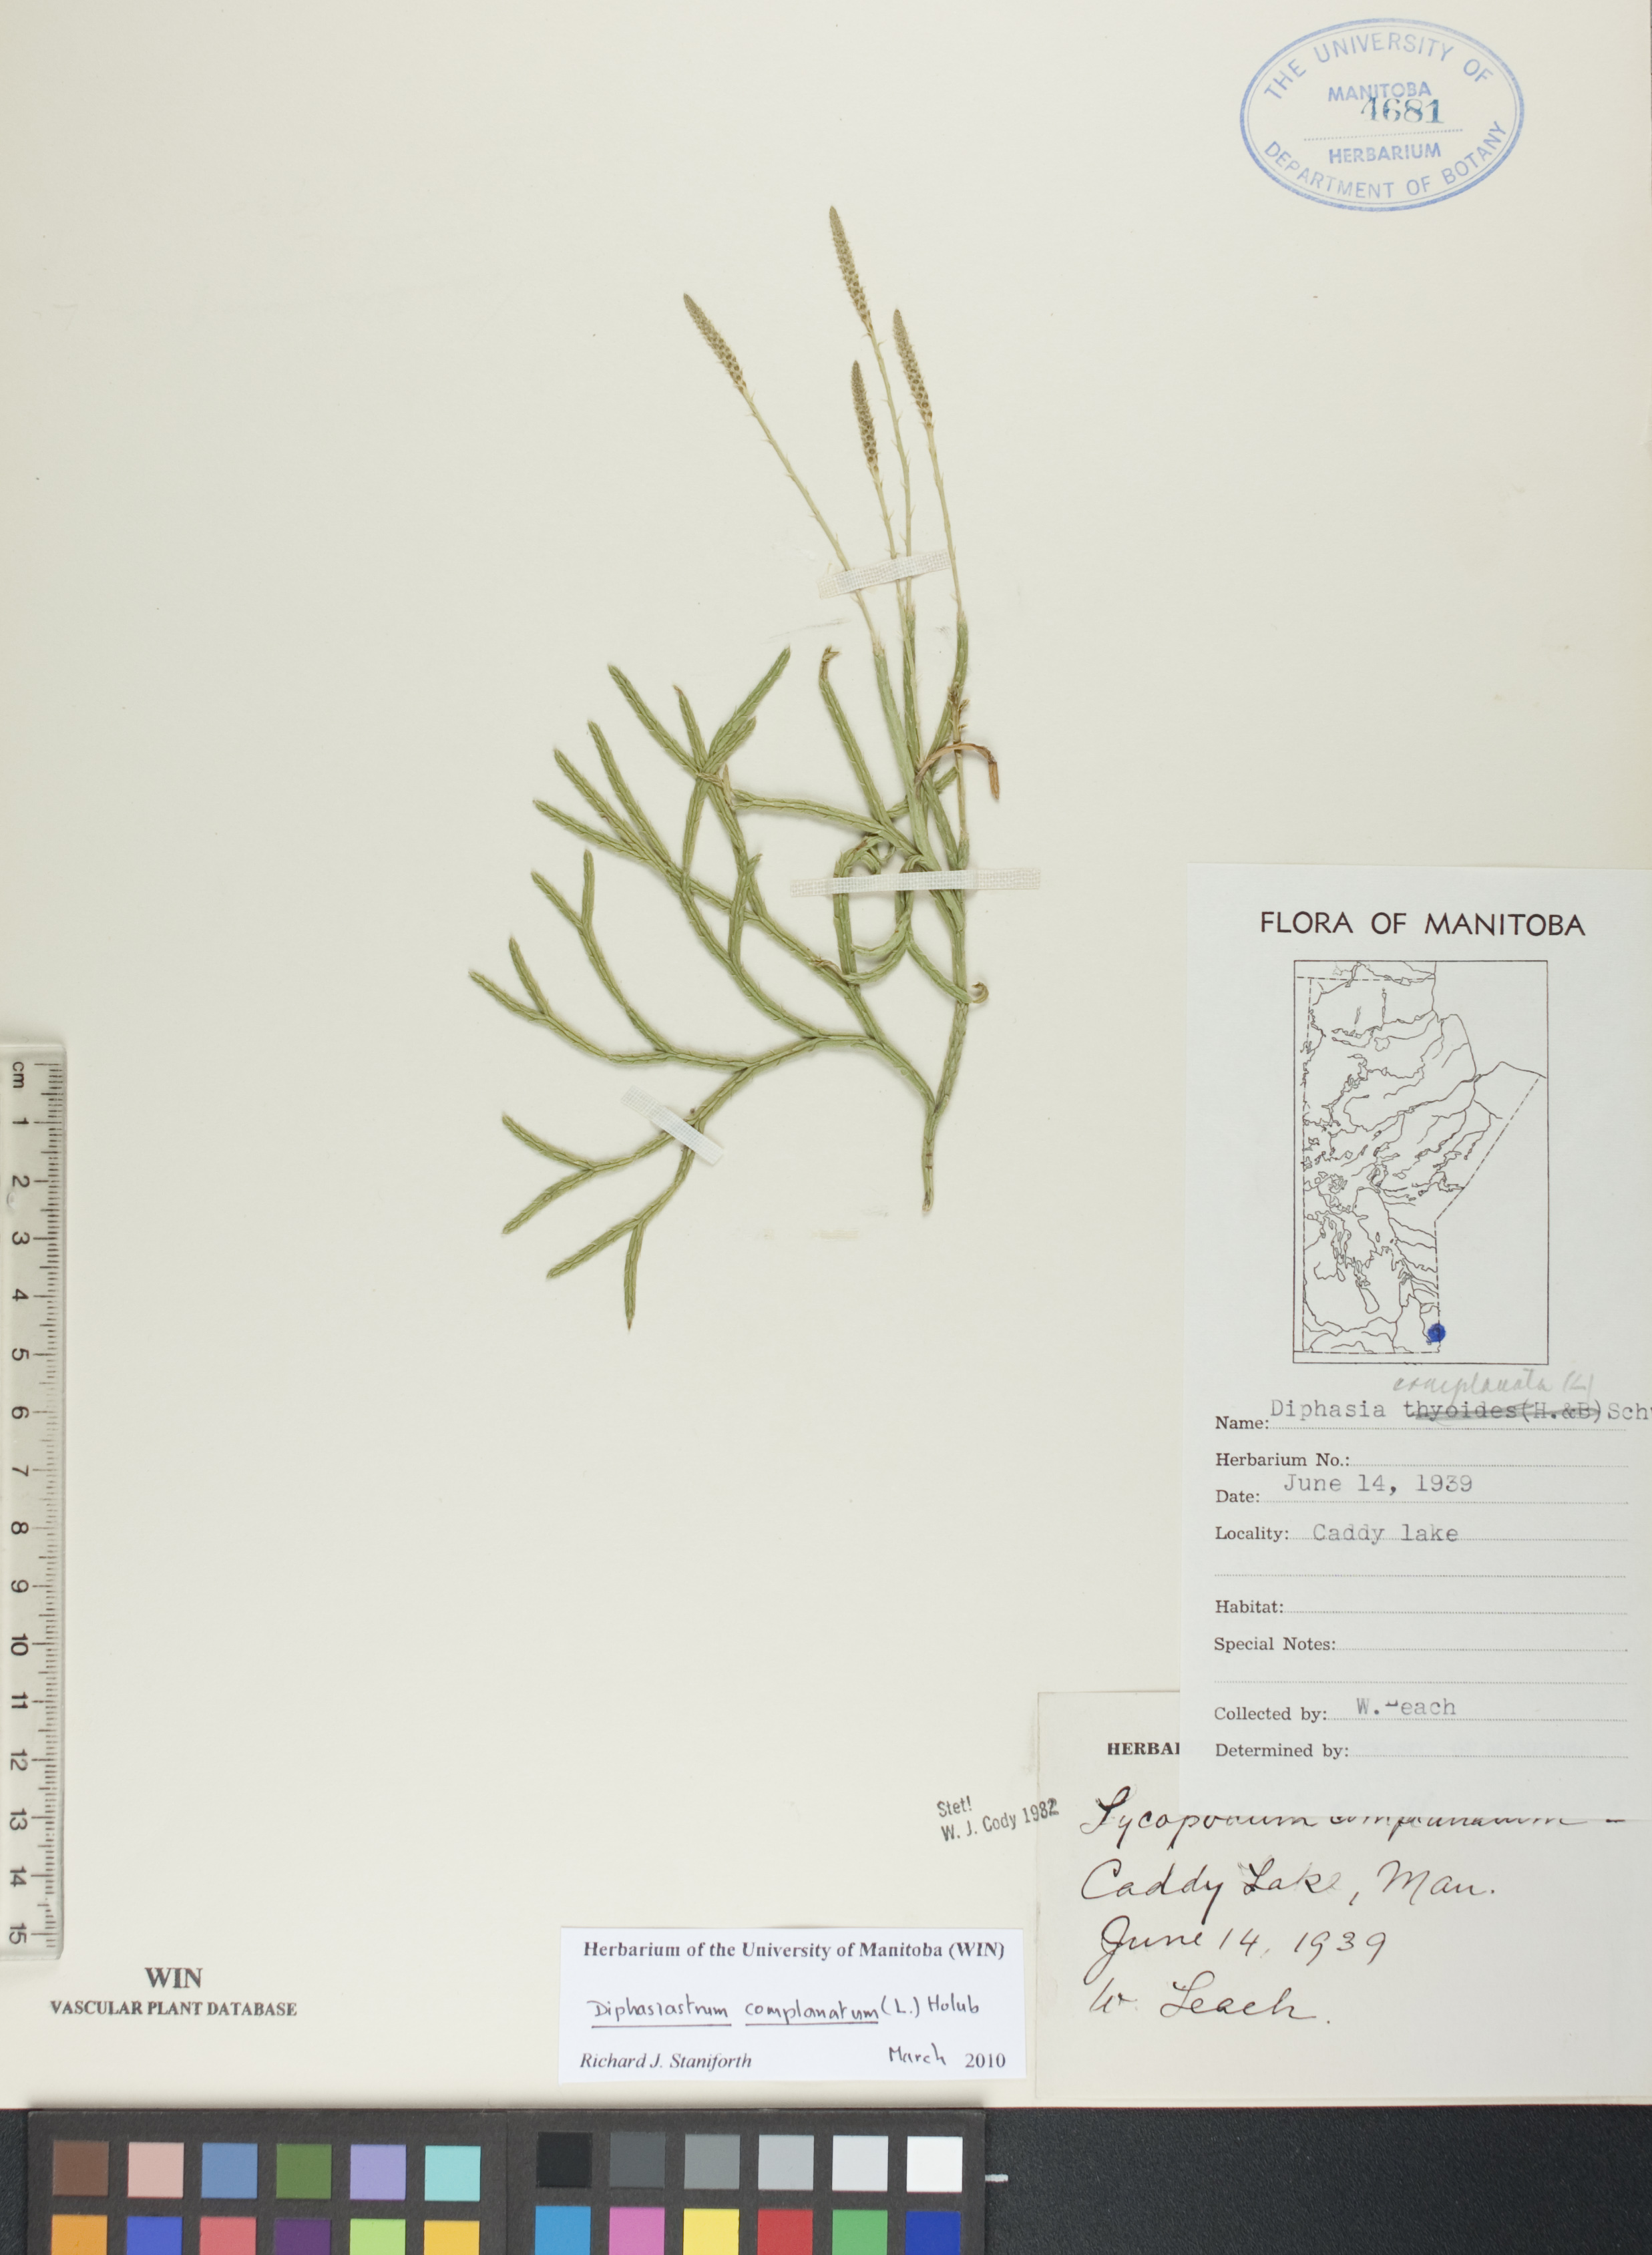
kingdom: Plantae
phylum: Tracheophyta
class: Lycopodiopsida
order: Lycopodiales
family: Lycopodiaceae
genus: Diphasiastrum
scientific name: Diphasiastrum complanatum
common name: Northern running-pine
